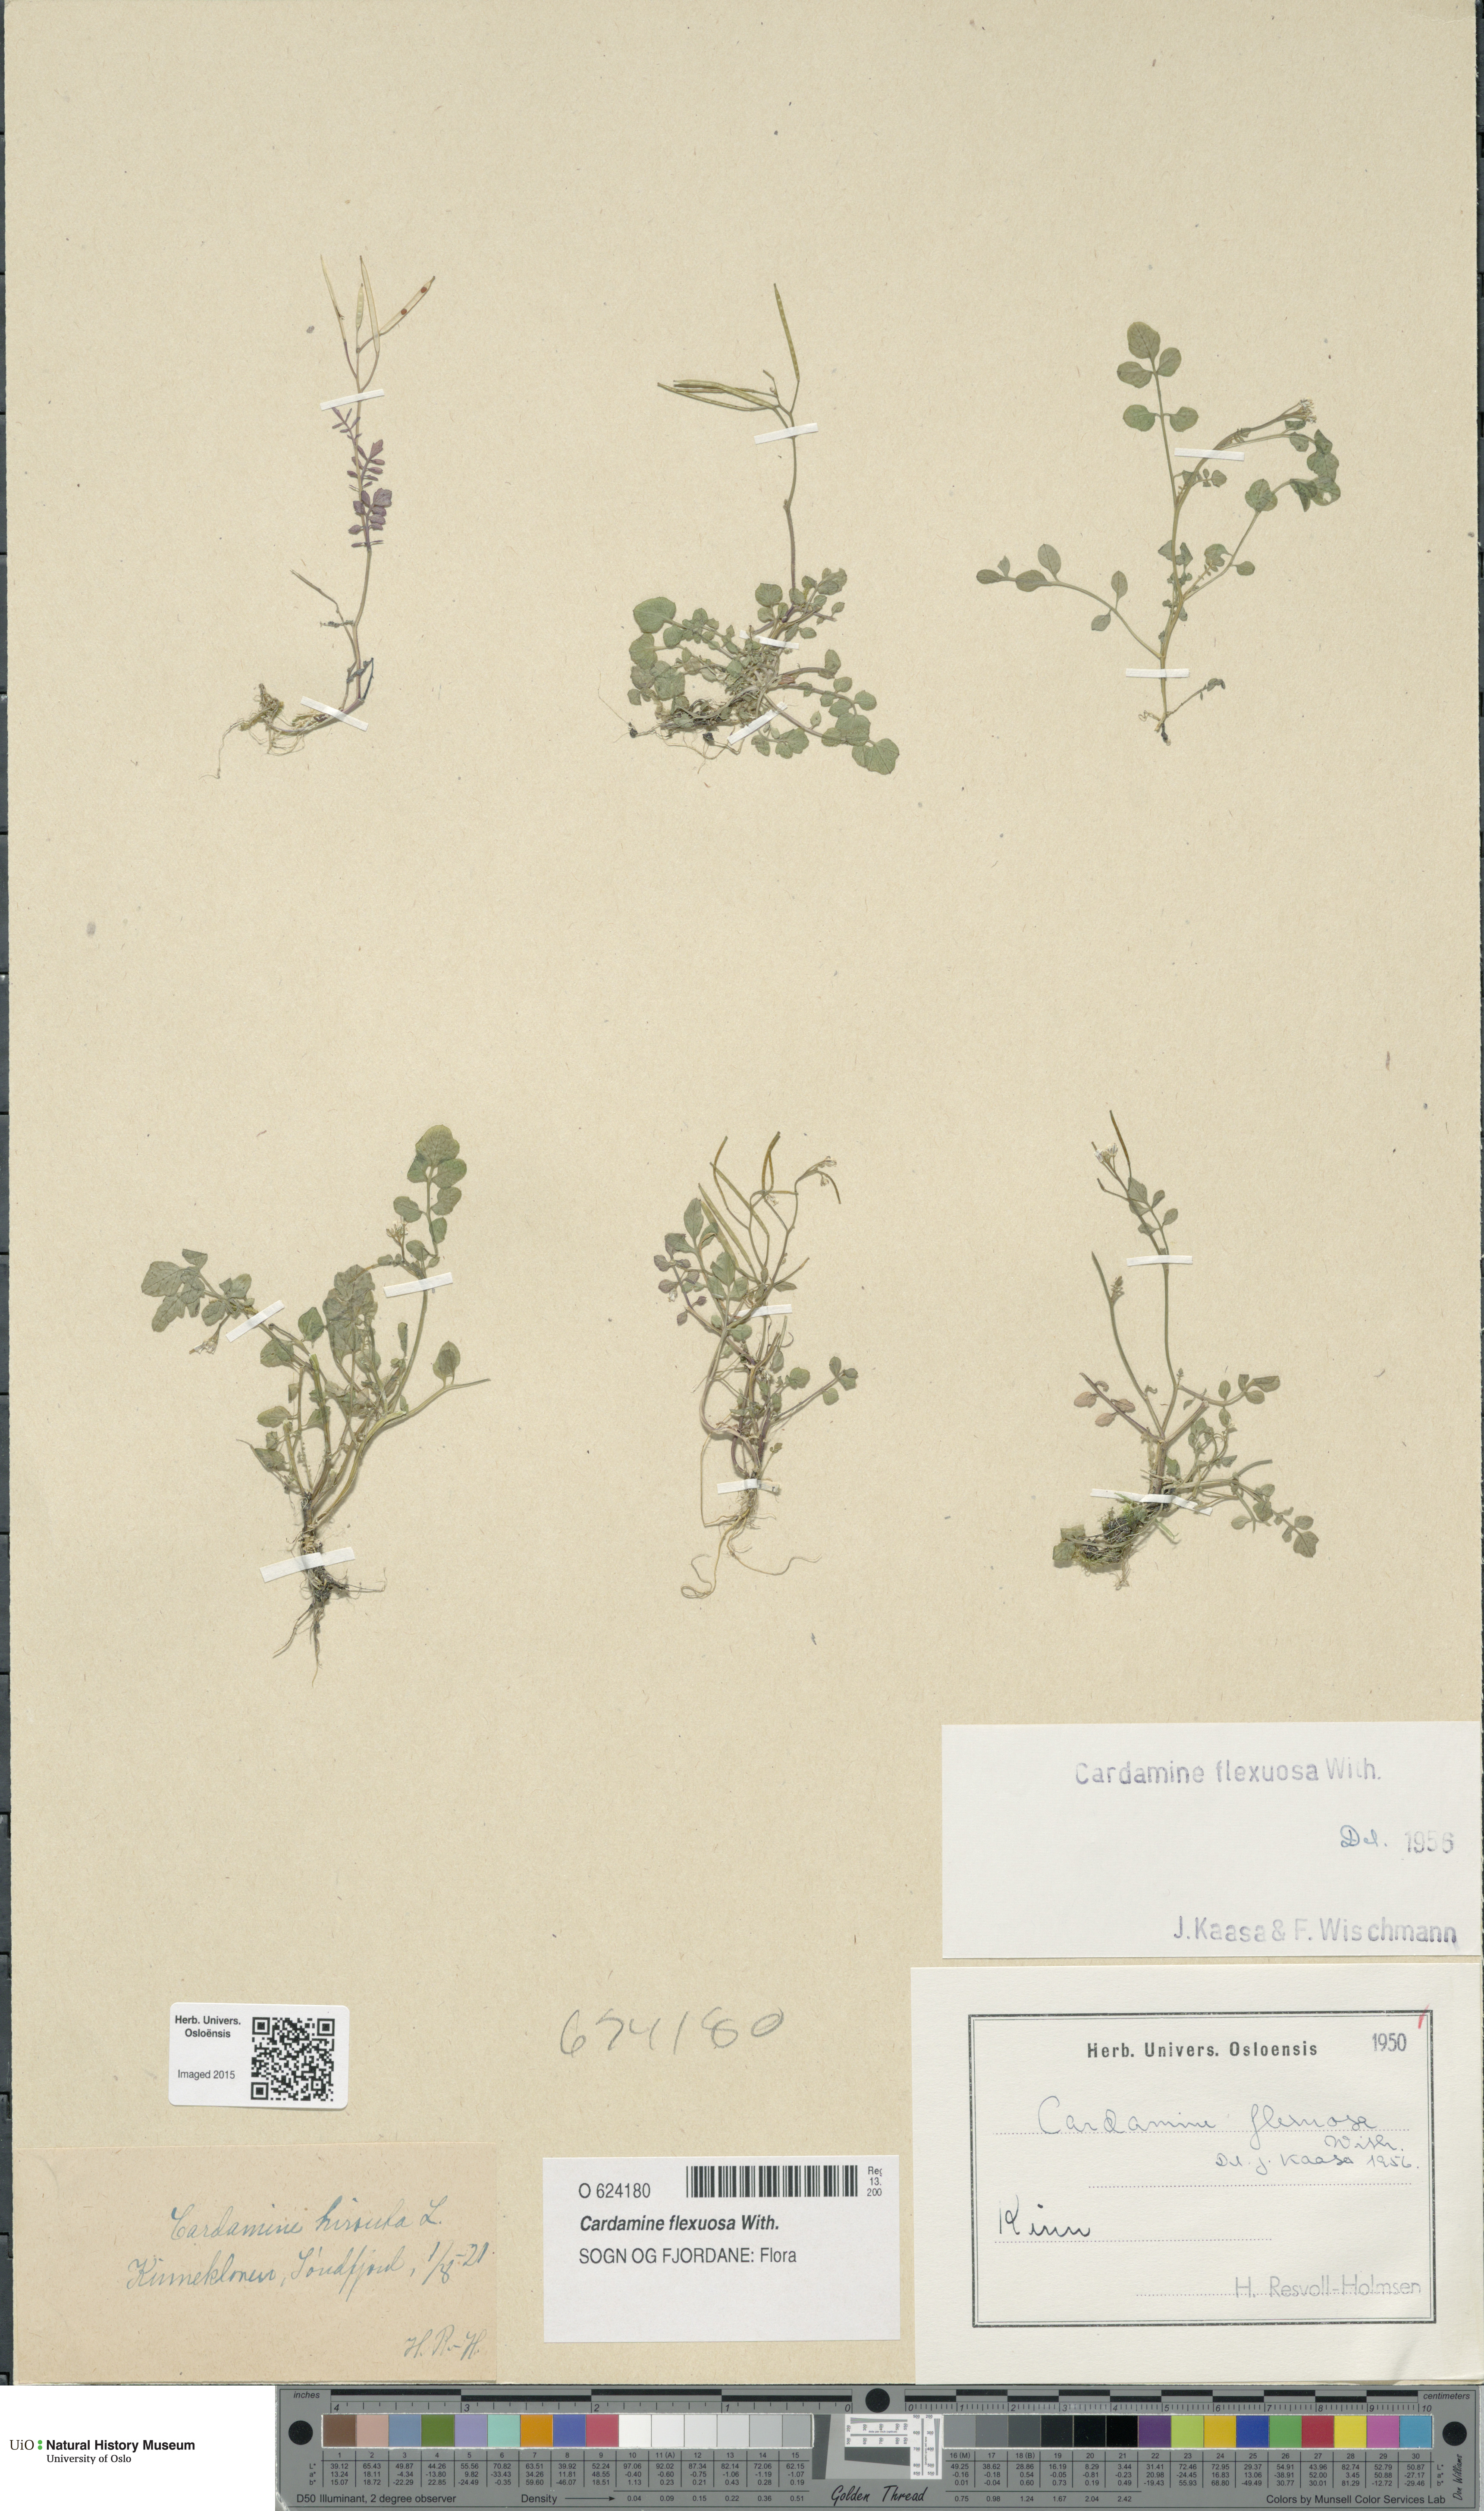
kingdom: Plantae
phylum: Tracheophyta
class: Magnoliopsida
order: Brassicales
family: Brassicaceae
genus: Cardamine
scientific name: Cardamine flexuosa
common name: Woodland bittercress
